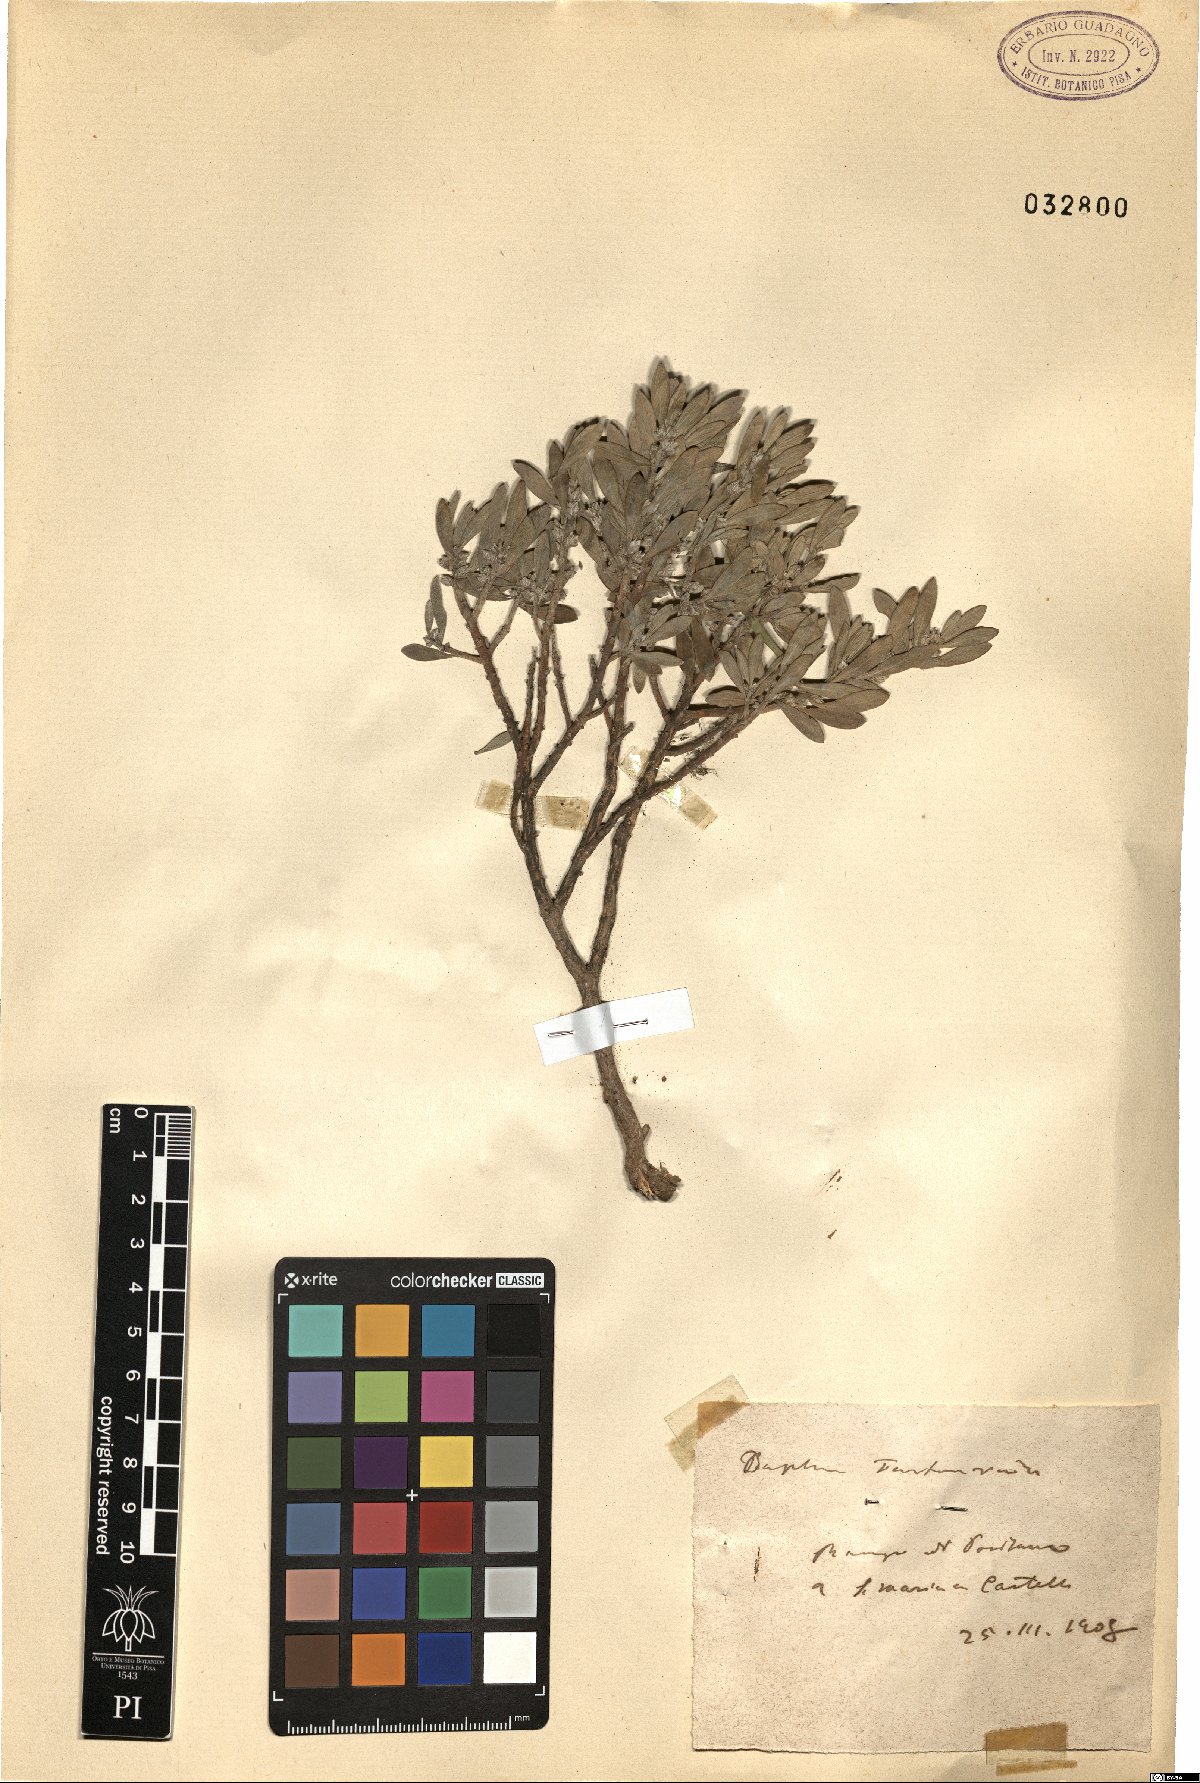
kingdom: Plantae
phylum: Tracheophyta
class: Magnoliopsida
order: Malvales
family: Thymelaeaceae
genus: Thymelaea
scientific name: Thymelaea tartonraira
